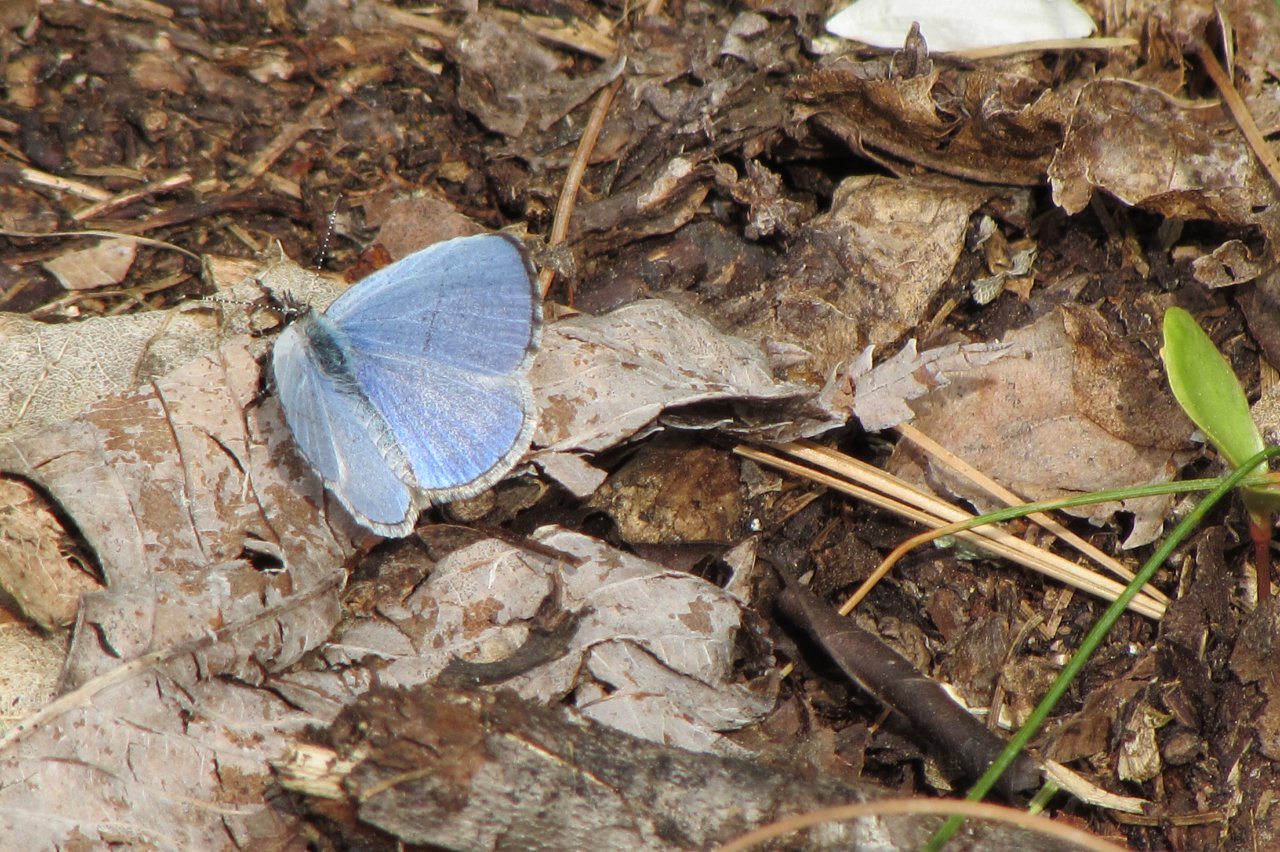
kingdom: Animalia
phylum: Arthropoda
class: Insecta
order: Lepidoptera
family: Lycaenidae
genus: Celastrina
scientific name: Celastrina lucia
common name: Northern Spring Azure
